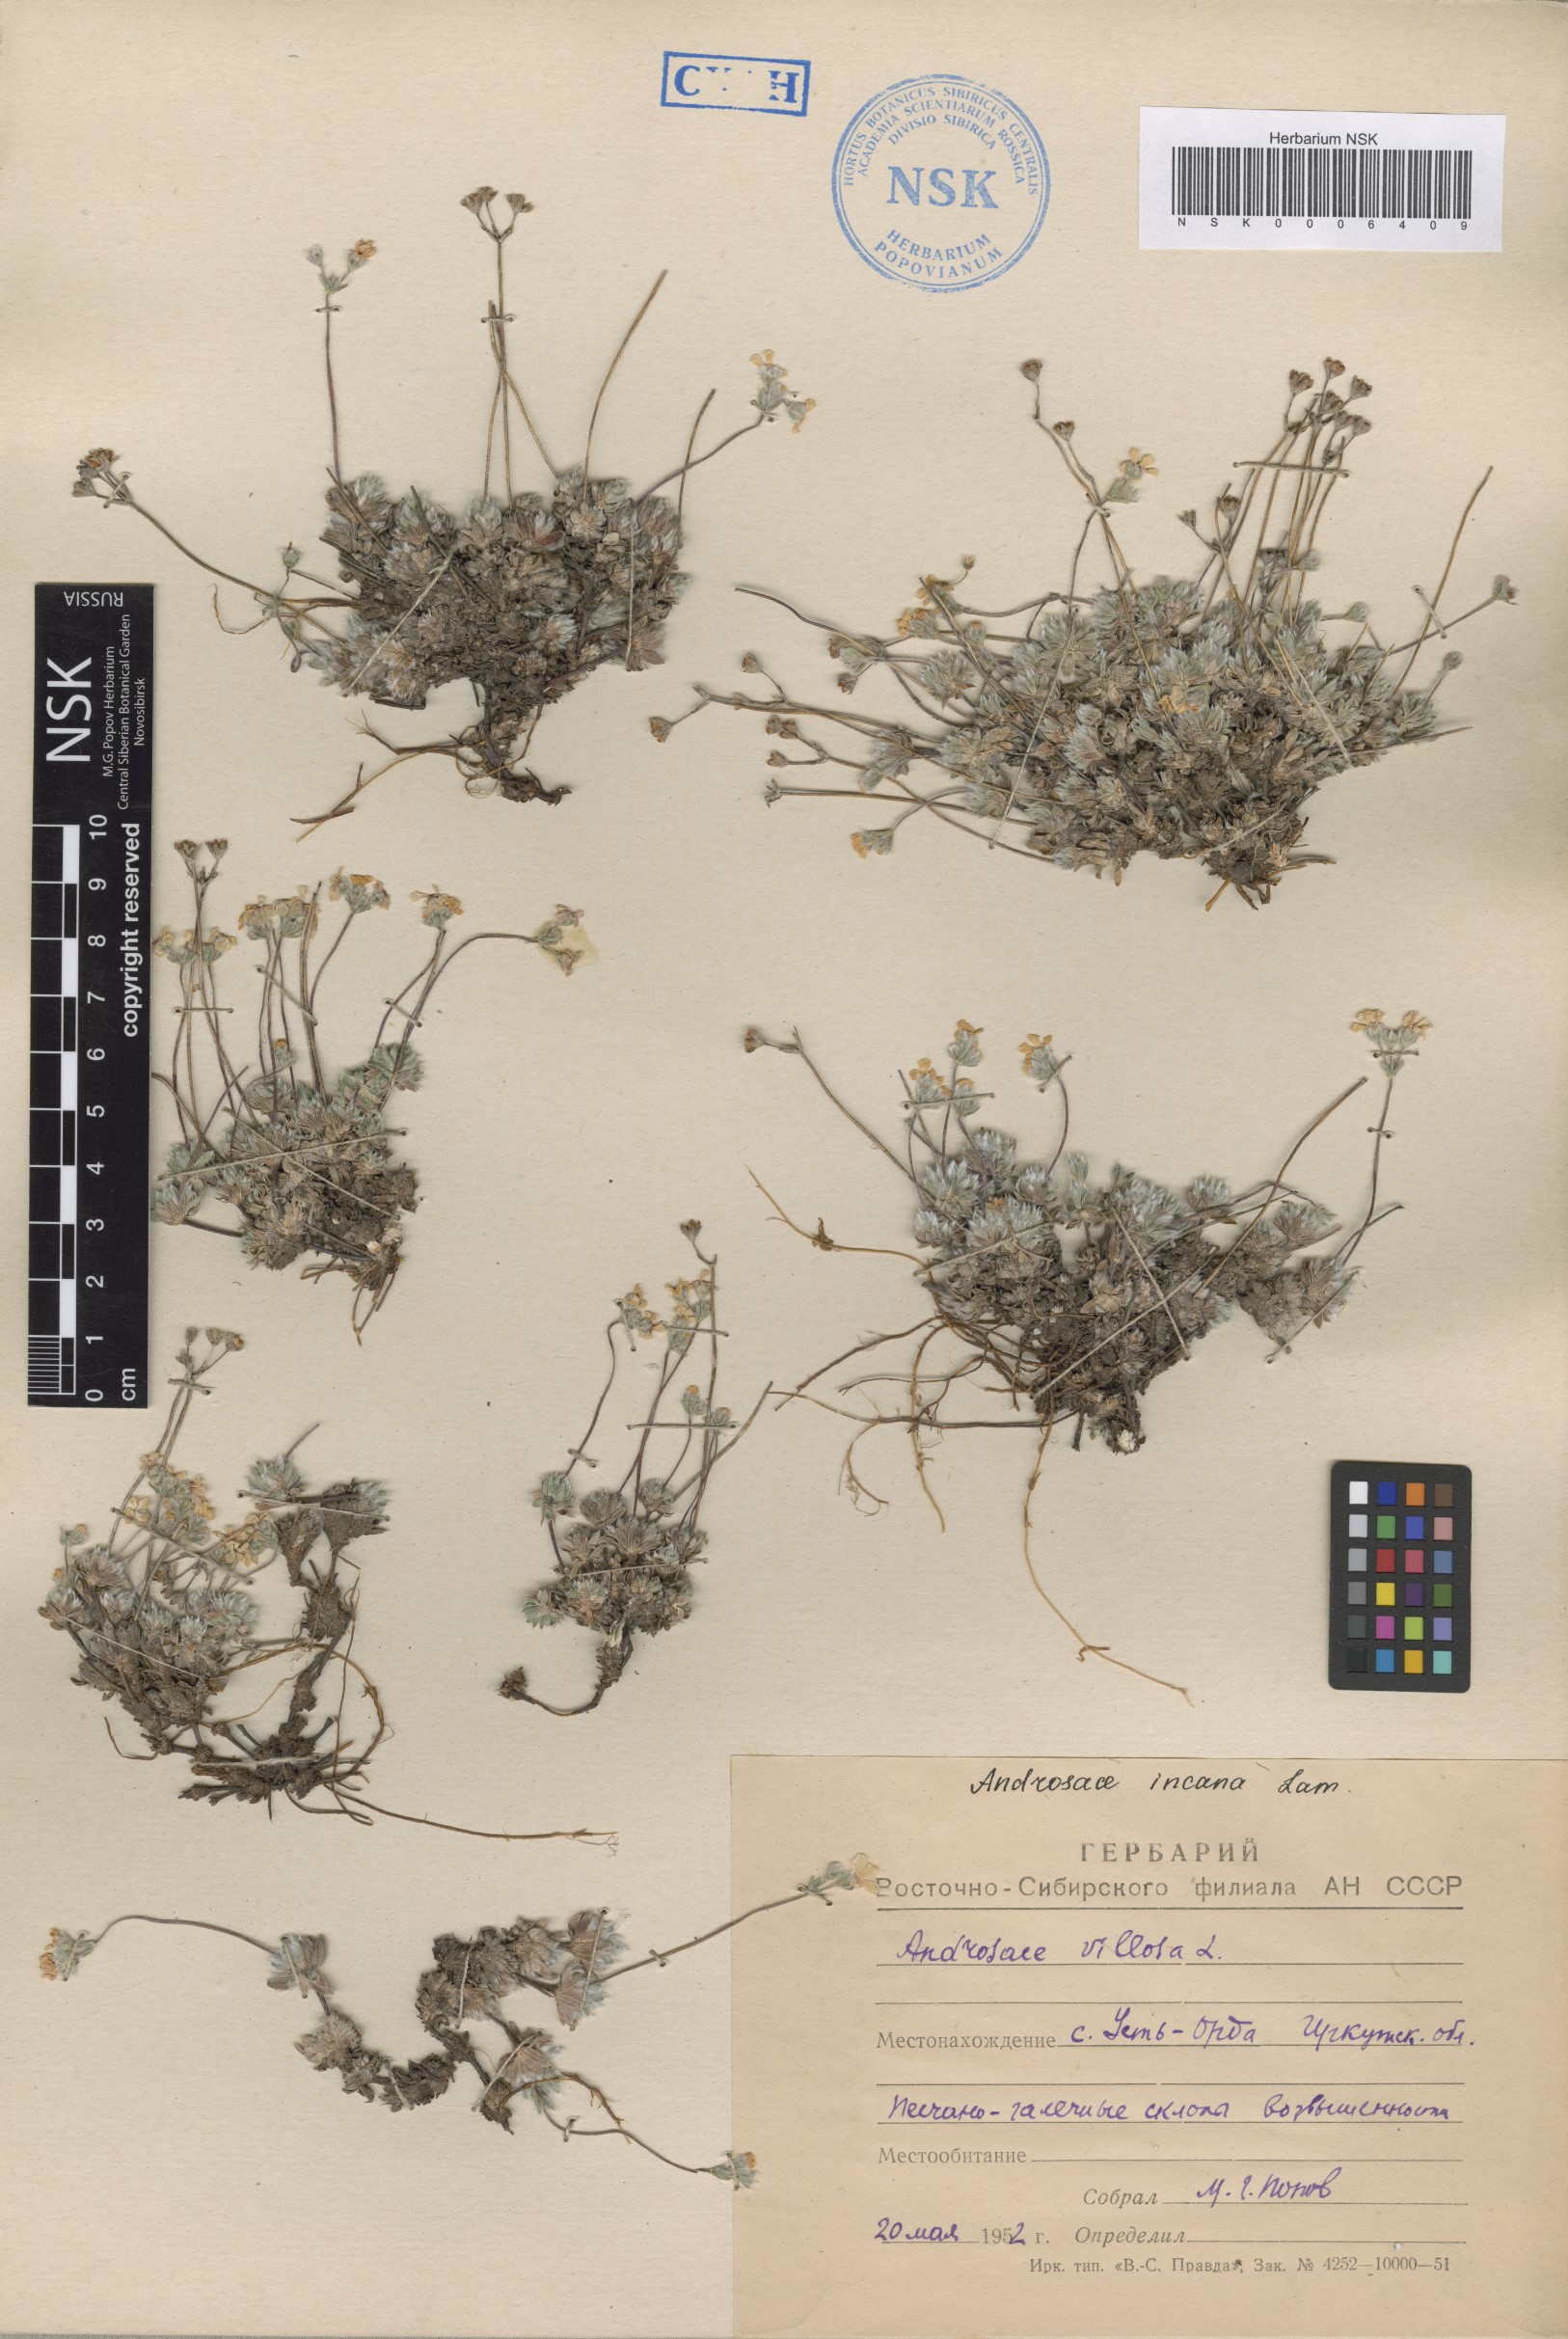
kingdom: Plantae
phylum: Tracheophyta
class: Magnoliopsida
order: Ericales
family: Primulaceae
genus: Androsace
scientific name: Androsace incana
